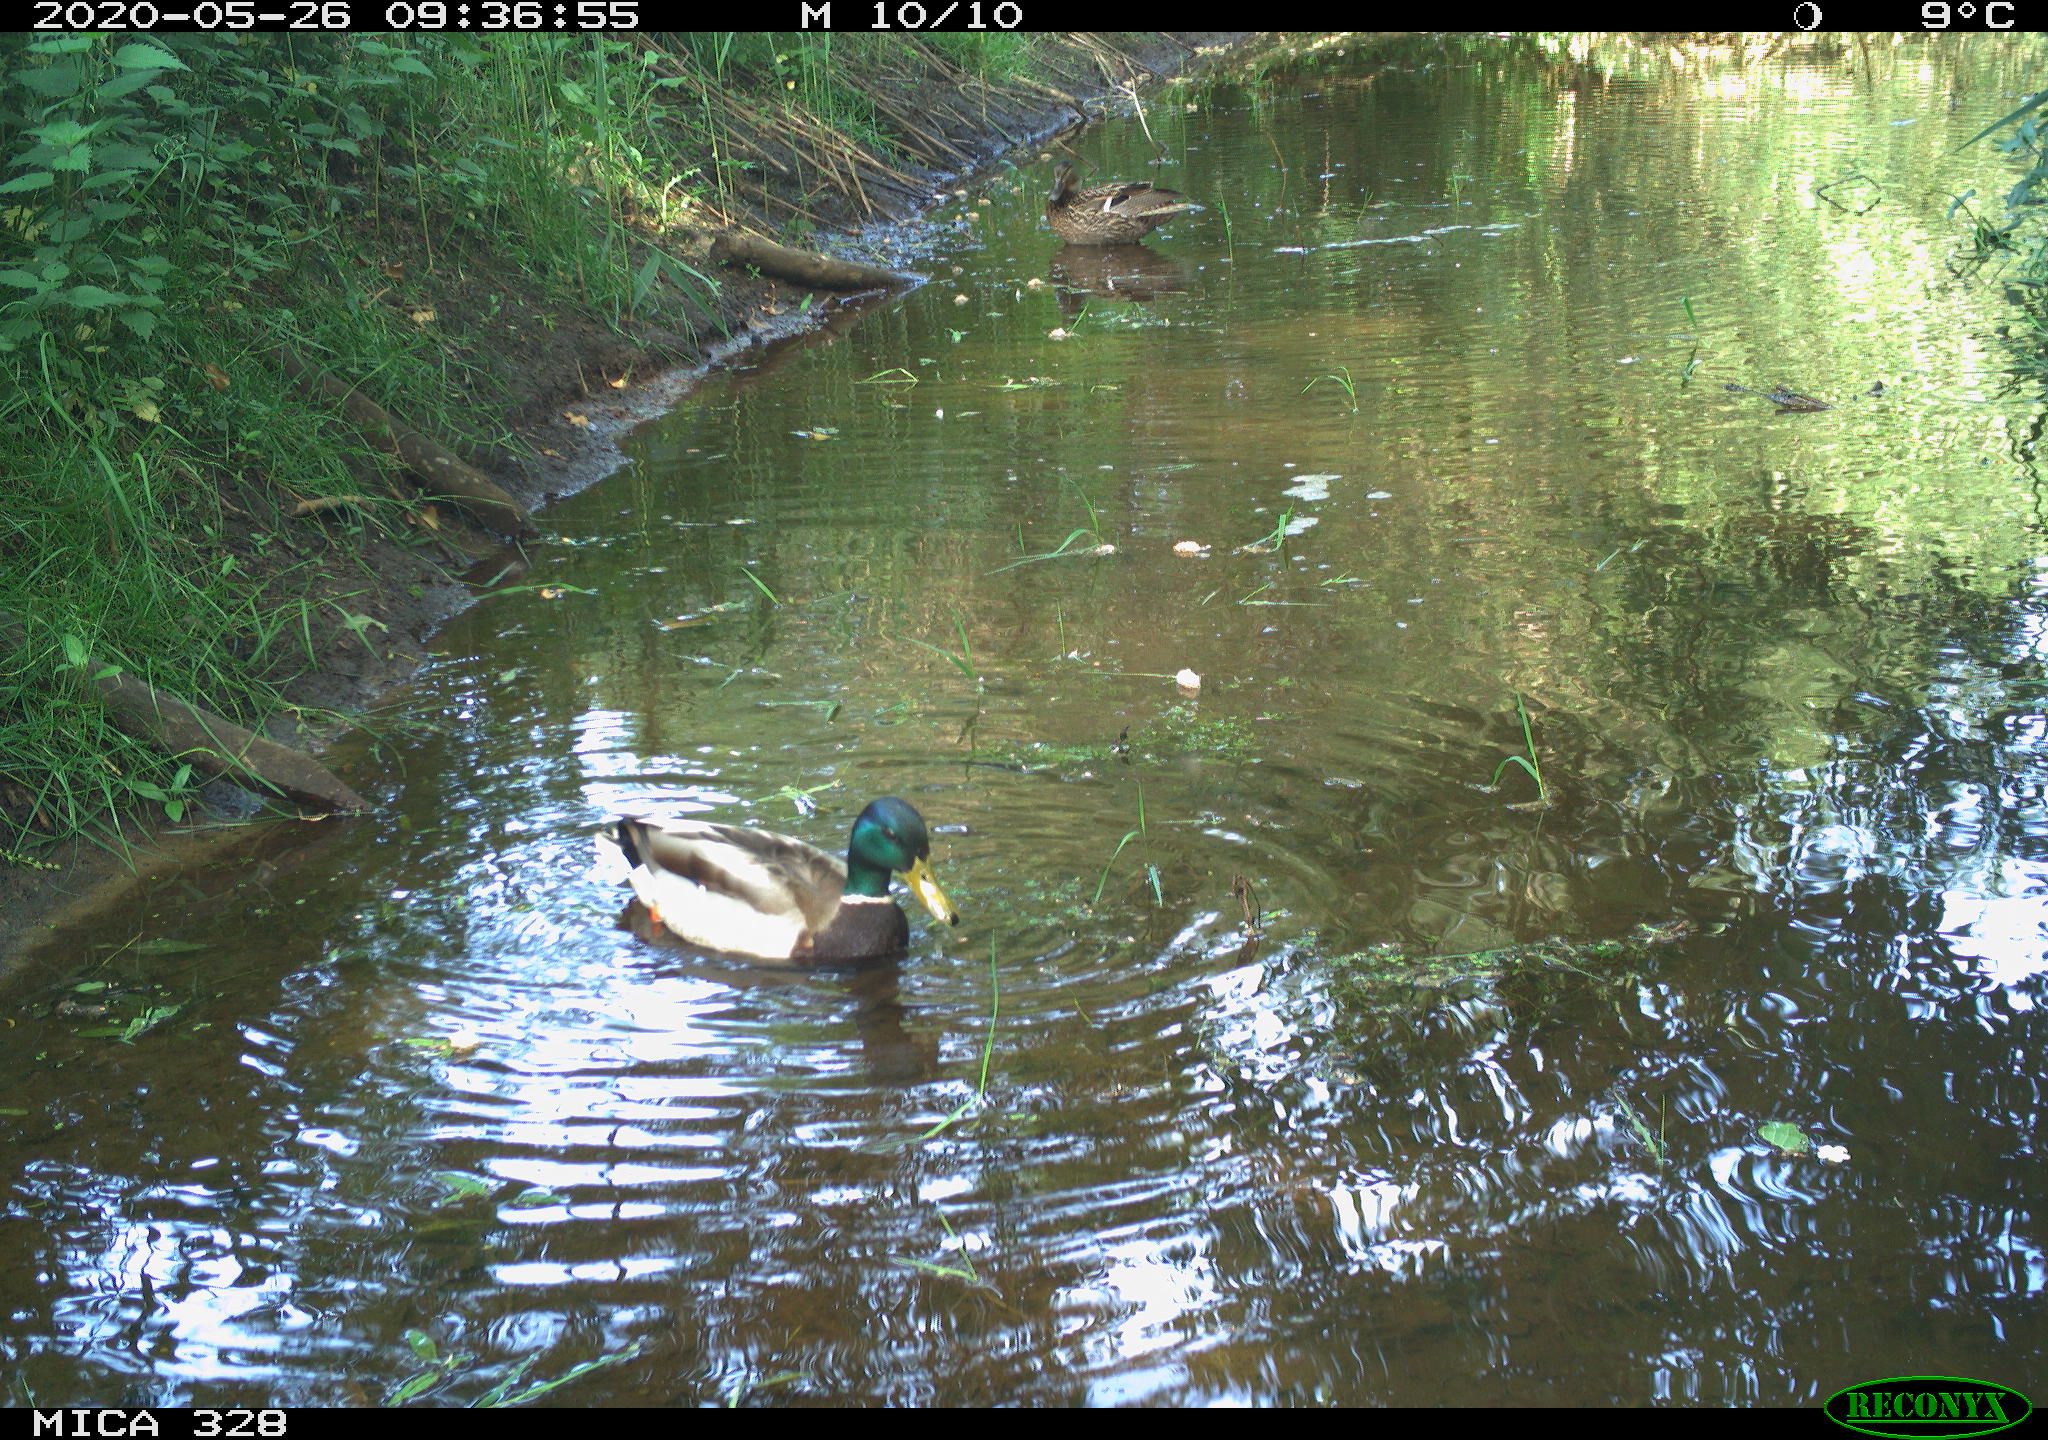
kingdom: Animalia
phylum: Chordata
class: Aves
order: Anseriformes
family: Anatidae
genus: Anas
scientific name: Anas platyrhynchos
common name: Mallard
